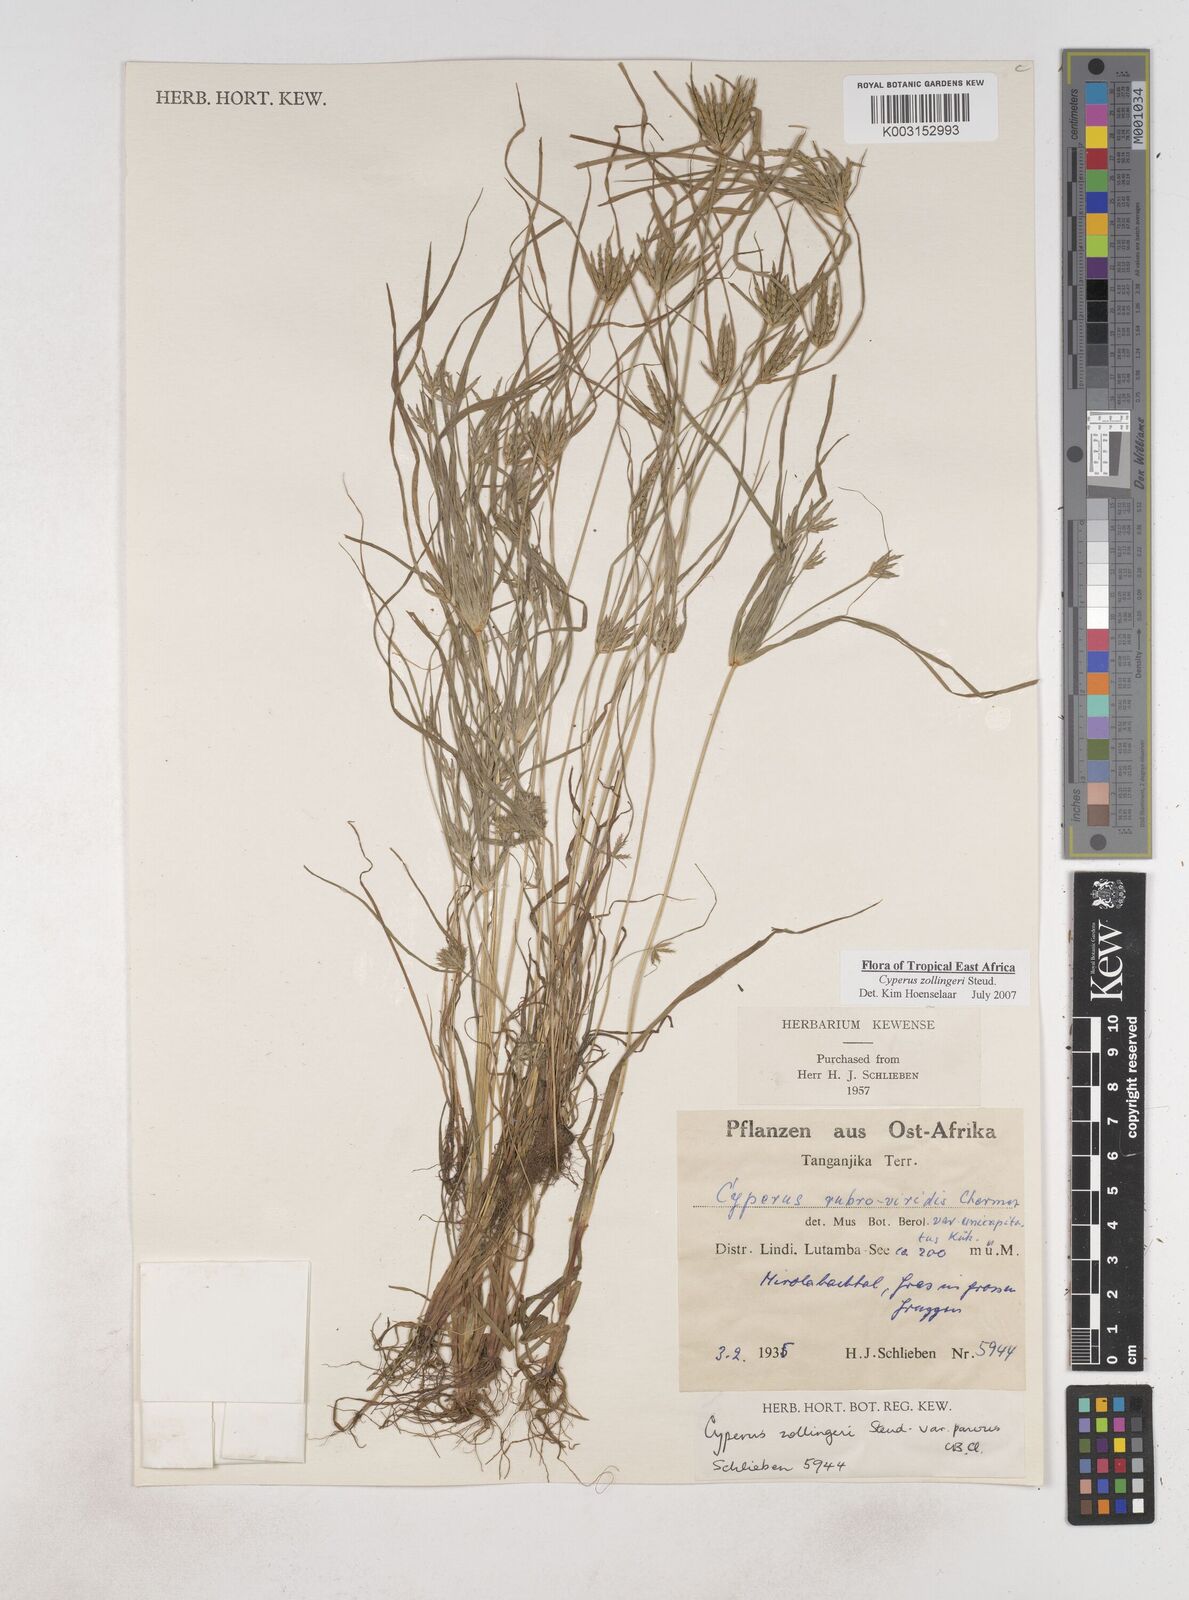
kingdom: Plantae
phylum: Tracheophyta
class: Liliopsida
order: Poales
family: Cyperaceae
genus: Cyperus
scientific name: Cyperus zollingeri
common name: Roadside flatsedge
